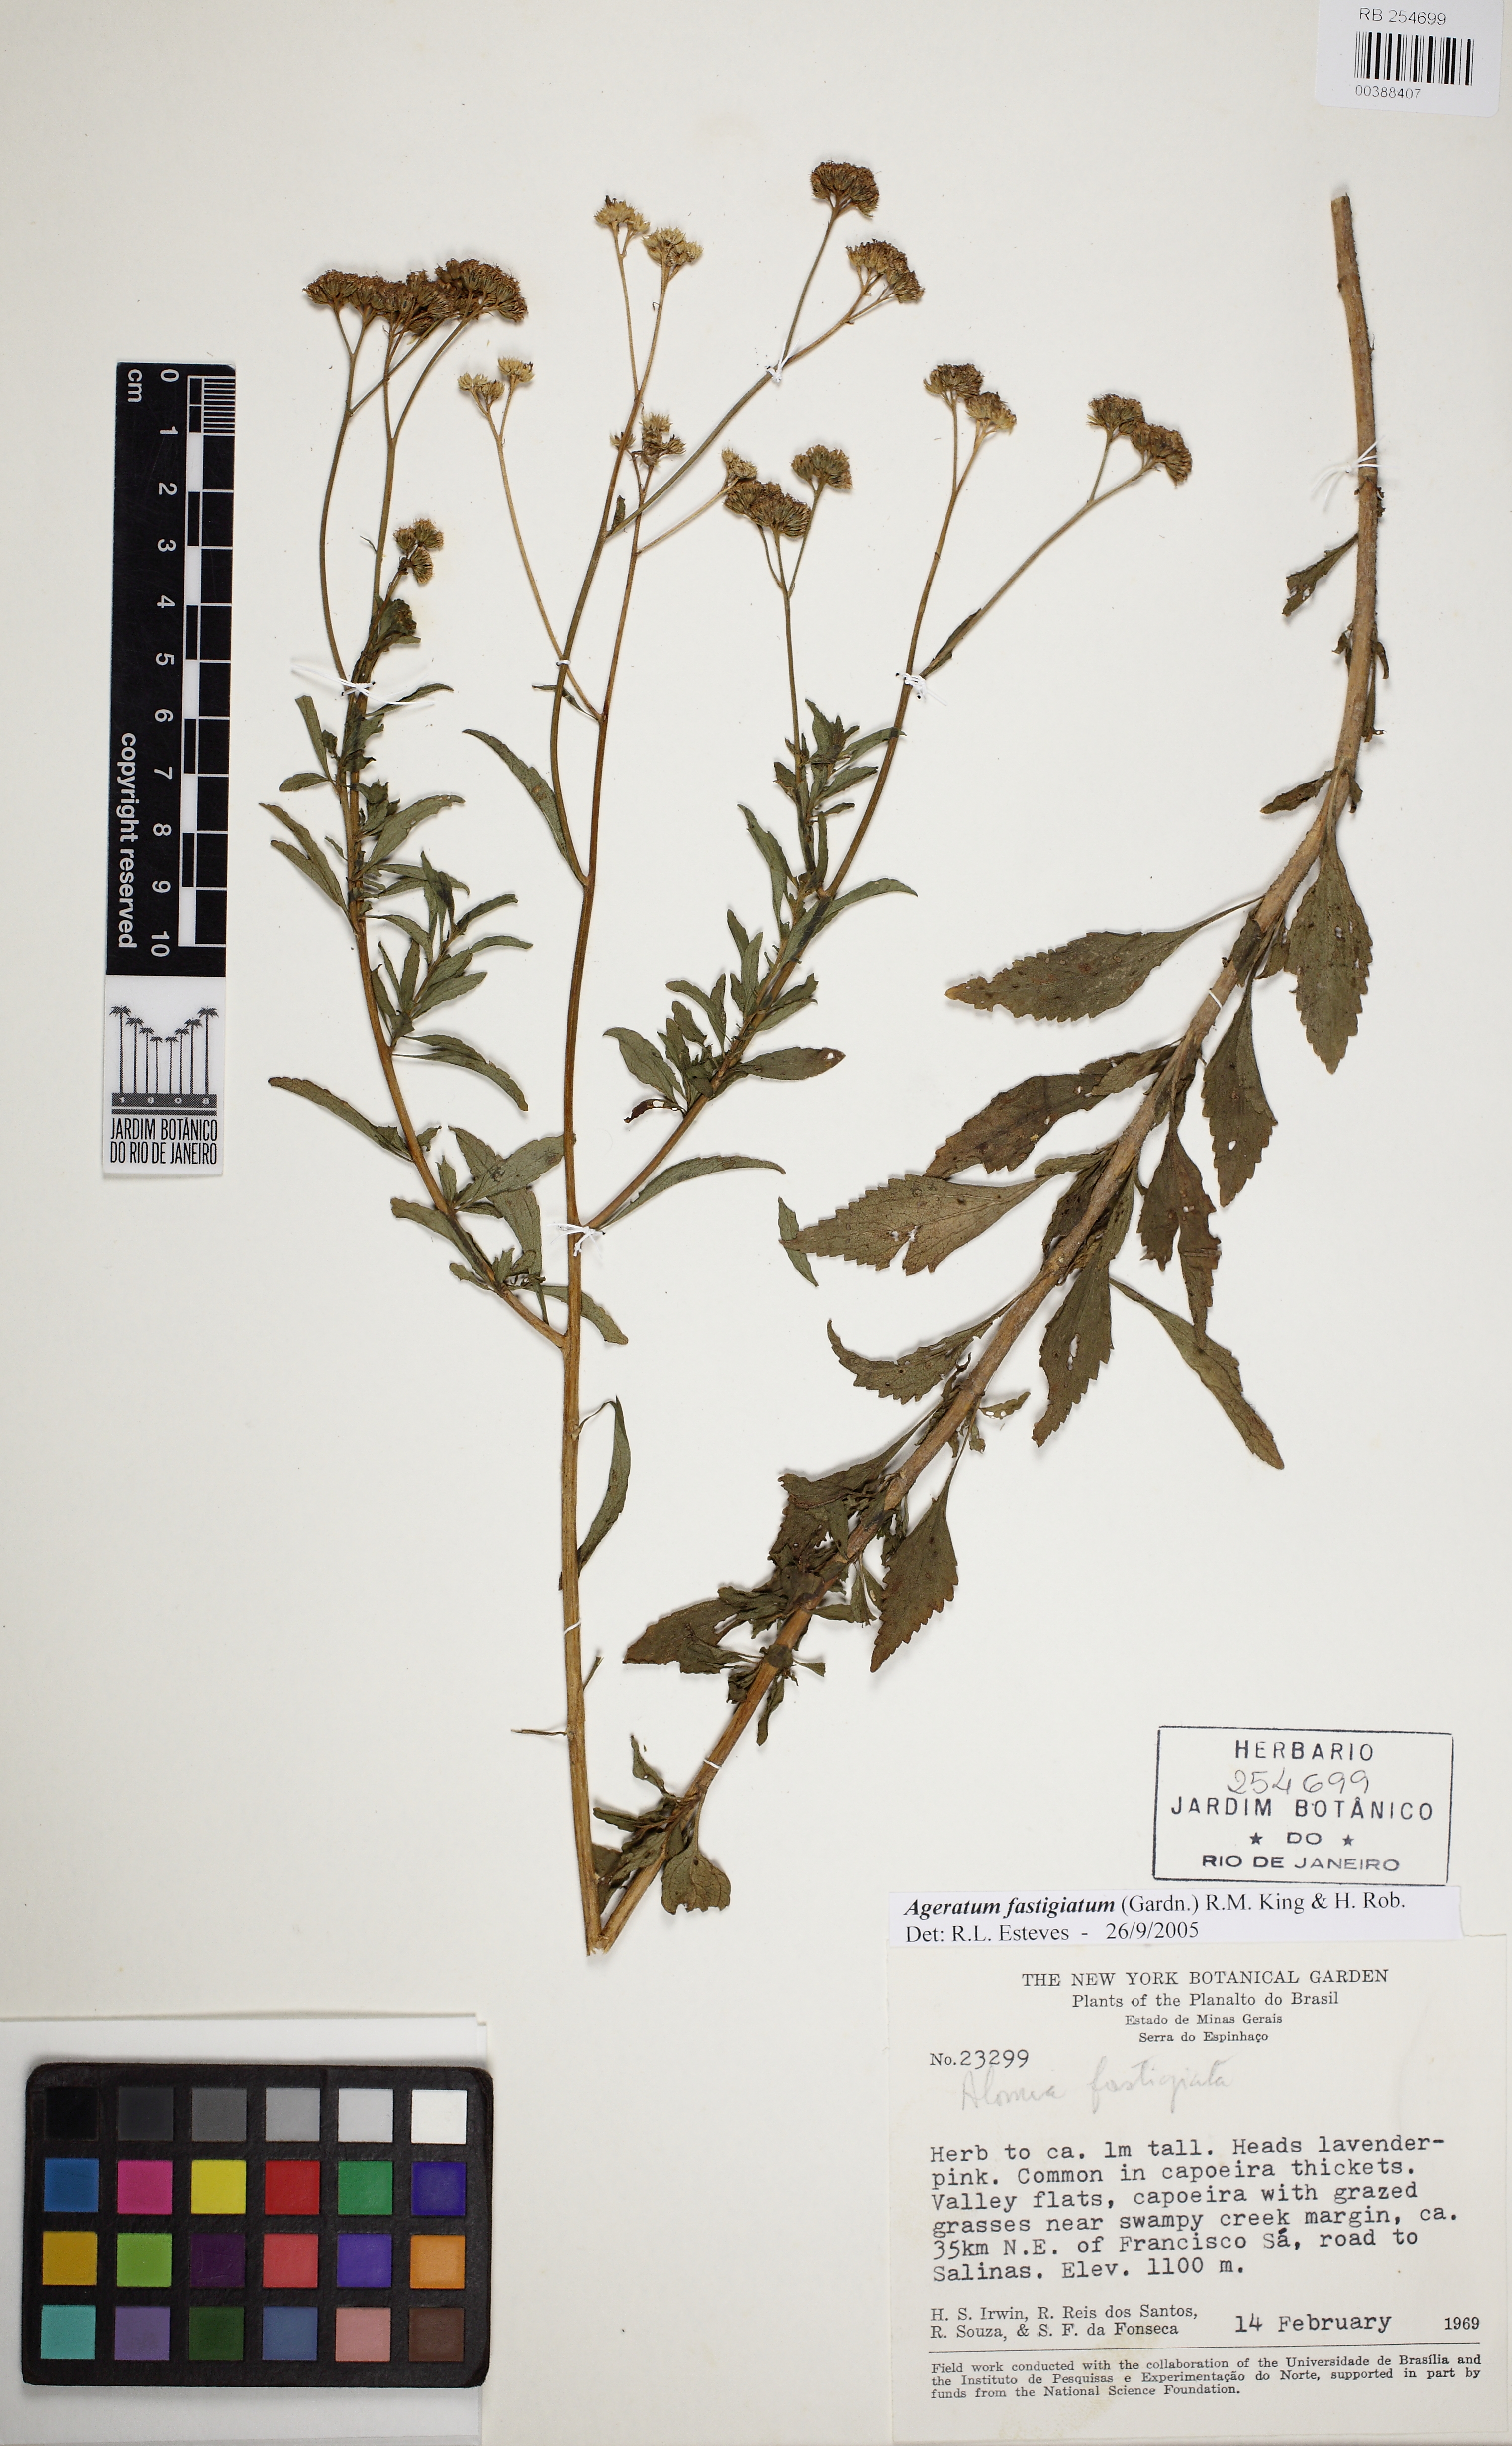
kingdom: Plantae
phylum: Tracheophyta
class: Magnoliopsida
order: Asterales
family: Asteraceae
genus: Ageratum
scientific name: Ageratum fastigiatum
